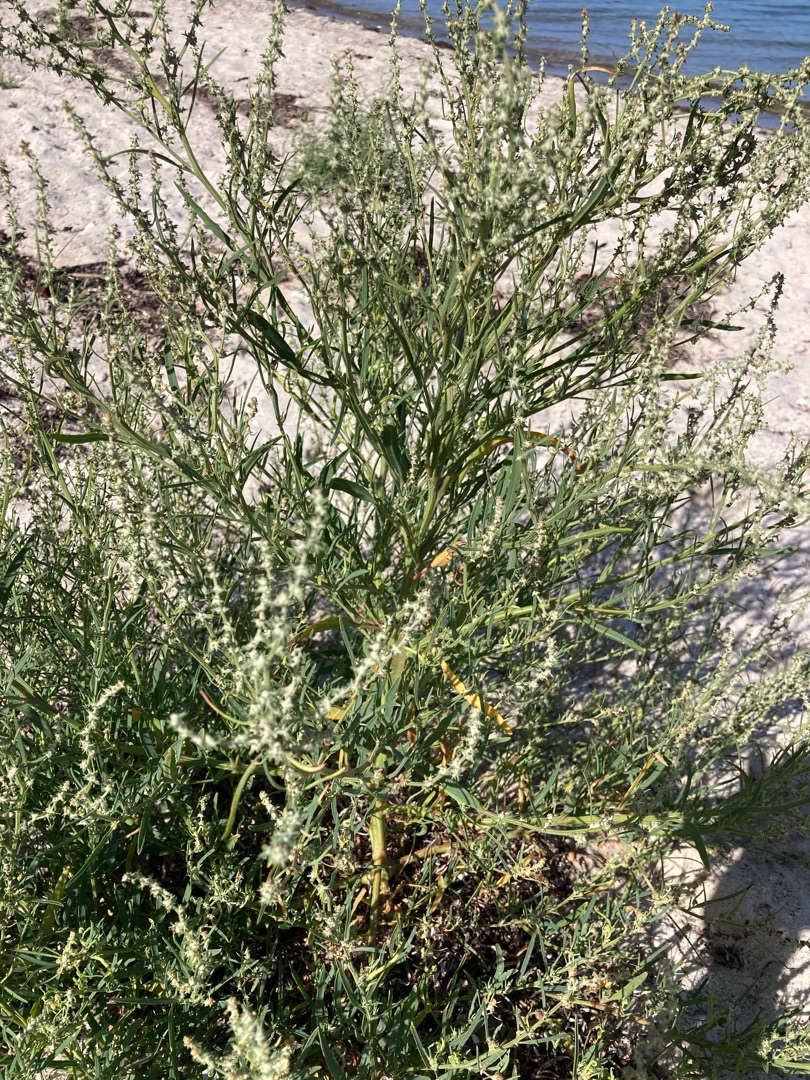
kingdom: Plantae
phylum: Tracheophyta
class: Magnoliopsida
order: Caryophyllales
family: Amaranthaceae
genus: Atriplex
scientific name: Atriplex littoralis
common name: Strand-mælde
